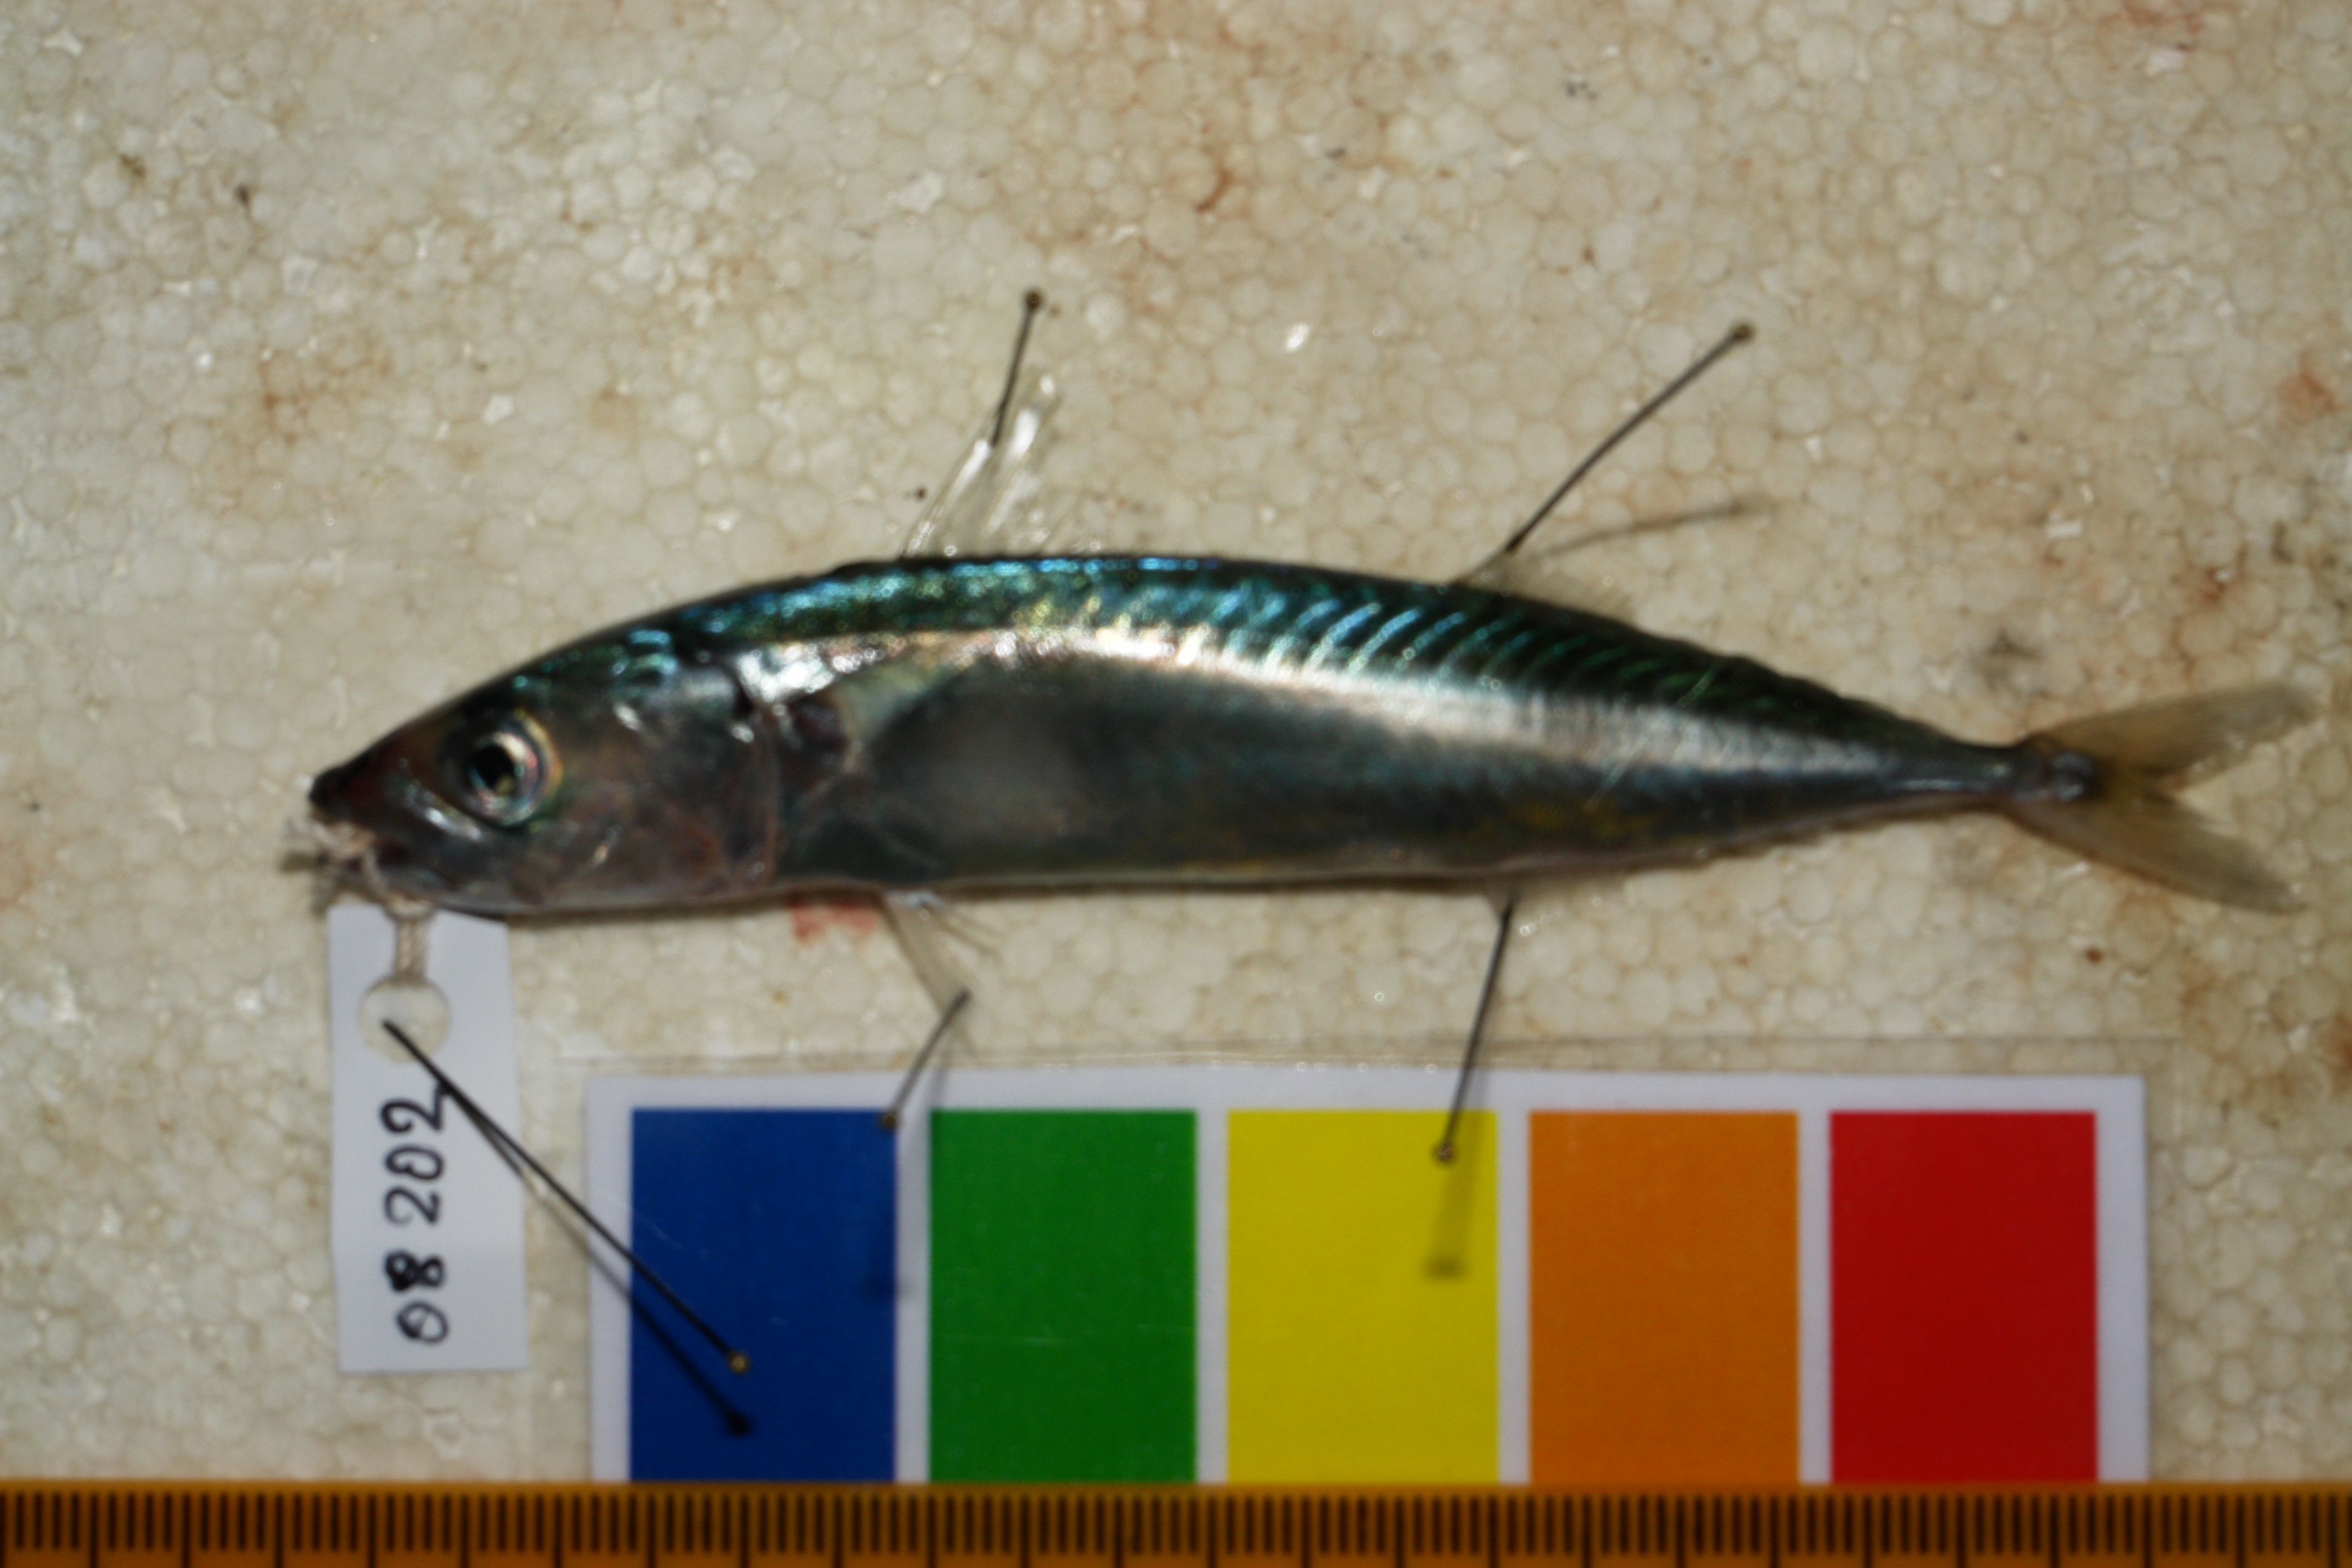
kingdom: Animalia
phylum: Chordata
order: Perciformes
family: Scombridae
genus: Scomber
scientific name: Scomber japonicus
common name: Chub mackerel
